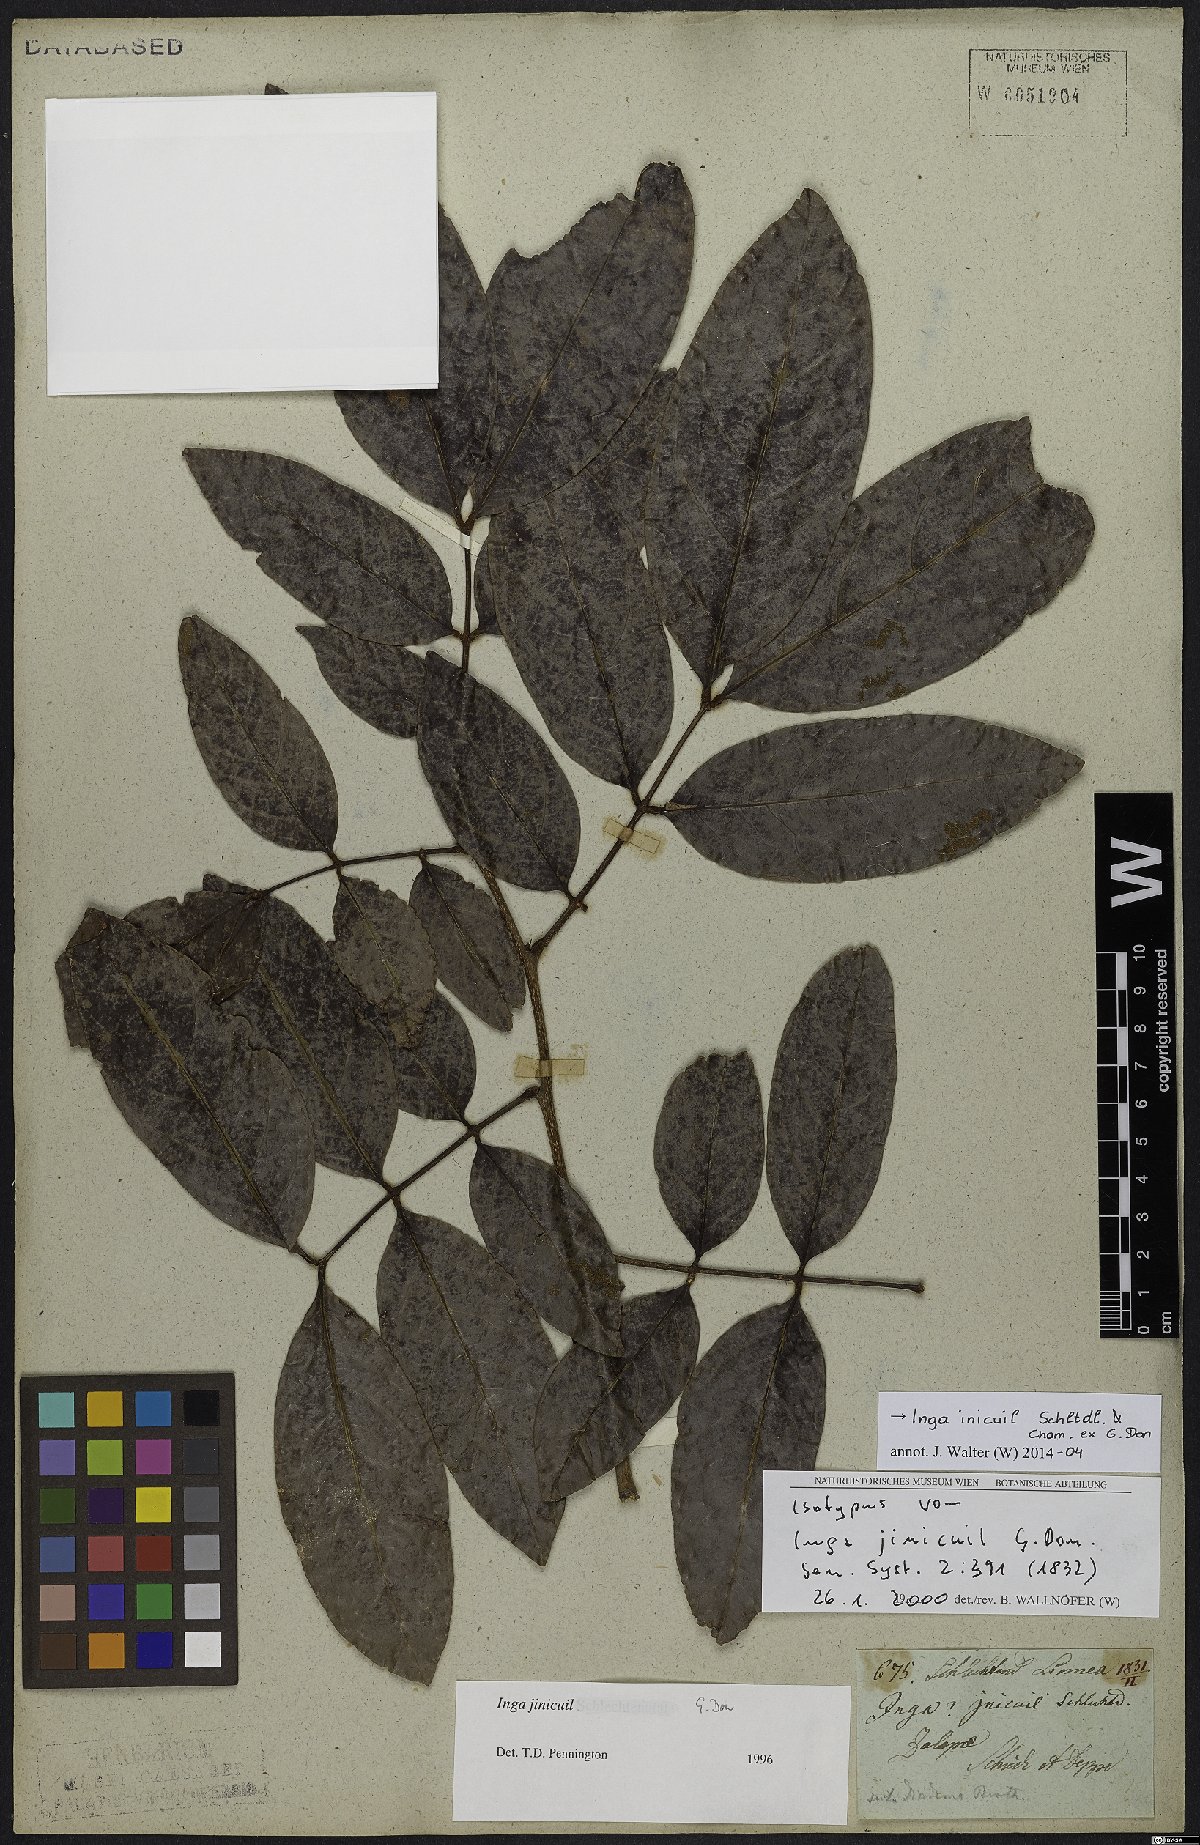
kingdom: Plantae
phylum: Tracheophyta
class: Magnoliopsida
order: Fabales
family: Fabaceae
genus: Inga
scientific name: Inga inicuil
